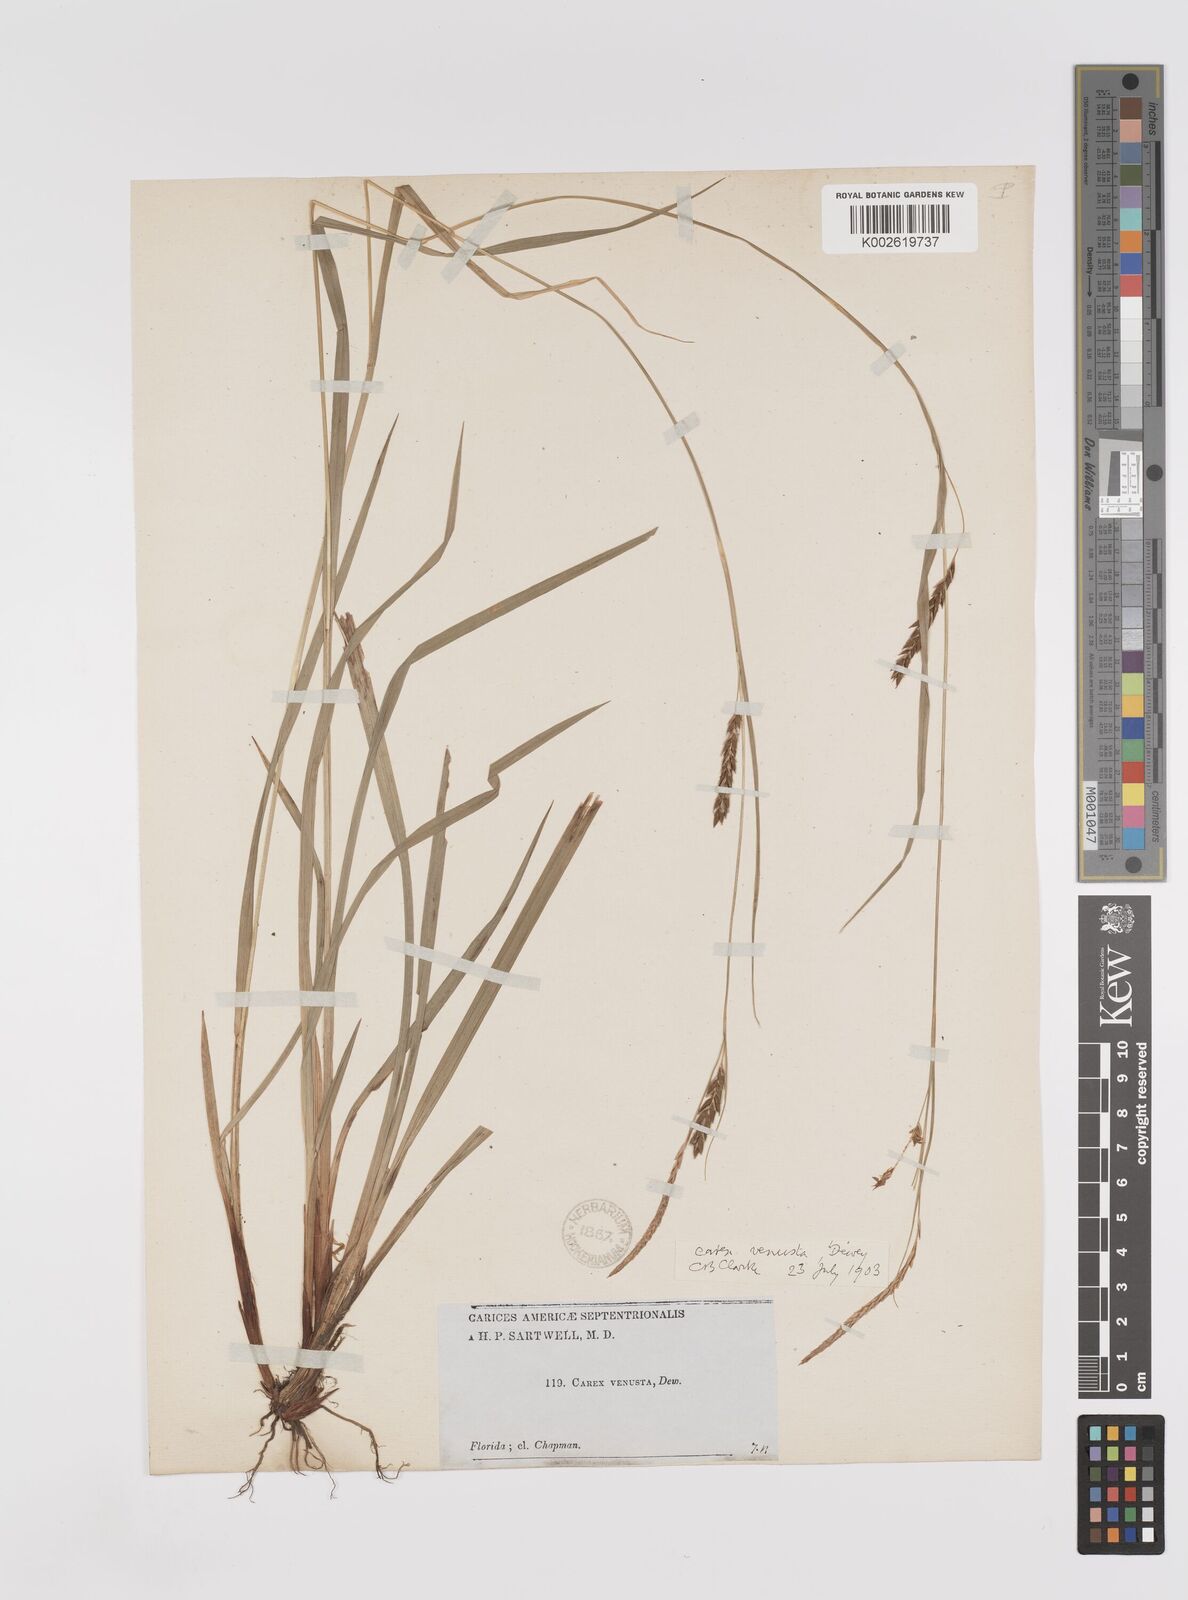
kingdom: Plantae
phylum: Tracheophyta
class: Liliopsida
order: Poales
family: Cyperaceae
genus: Carex
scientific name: Carex venusta
